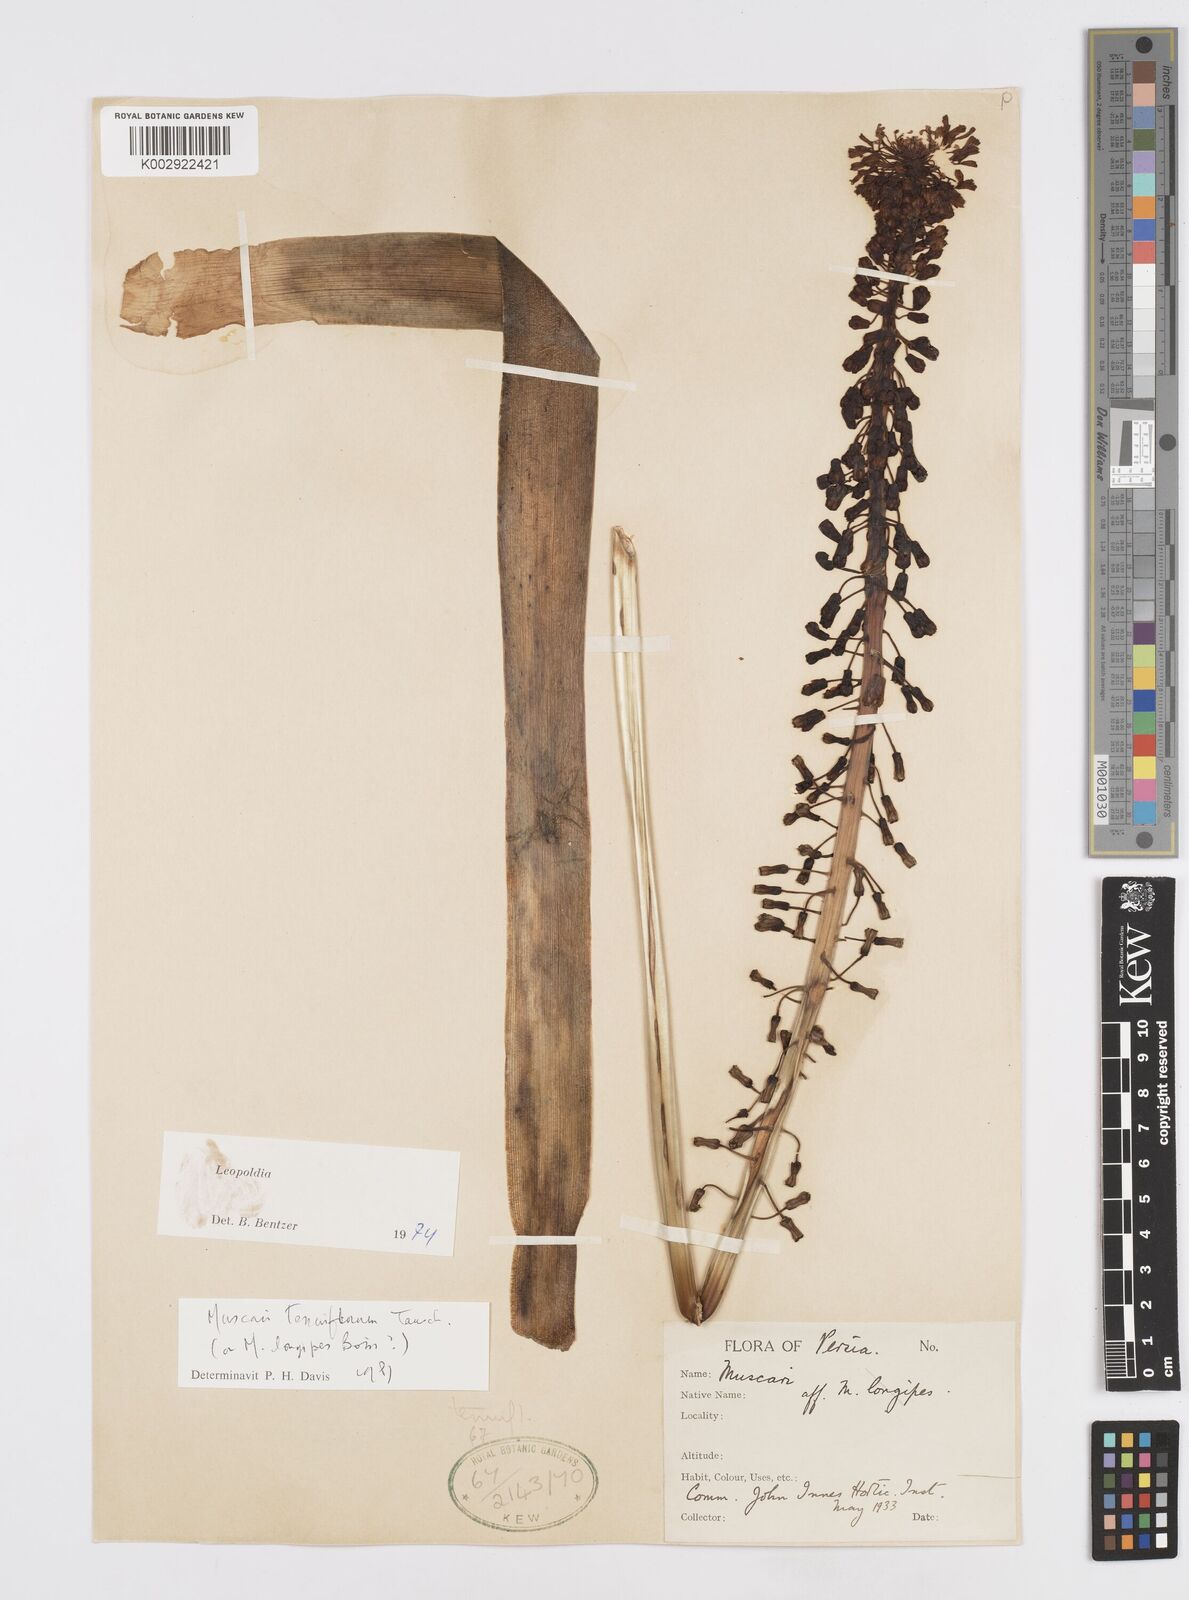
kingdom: Plantae
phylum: Tracheophyta
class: Liliopsida
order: Asparagales
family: Asparagaceae
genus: Muscari
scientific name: Muscari tenuiflorum
